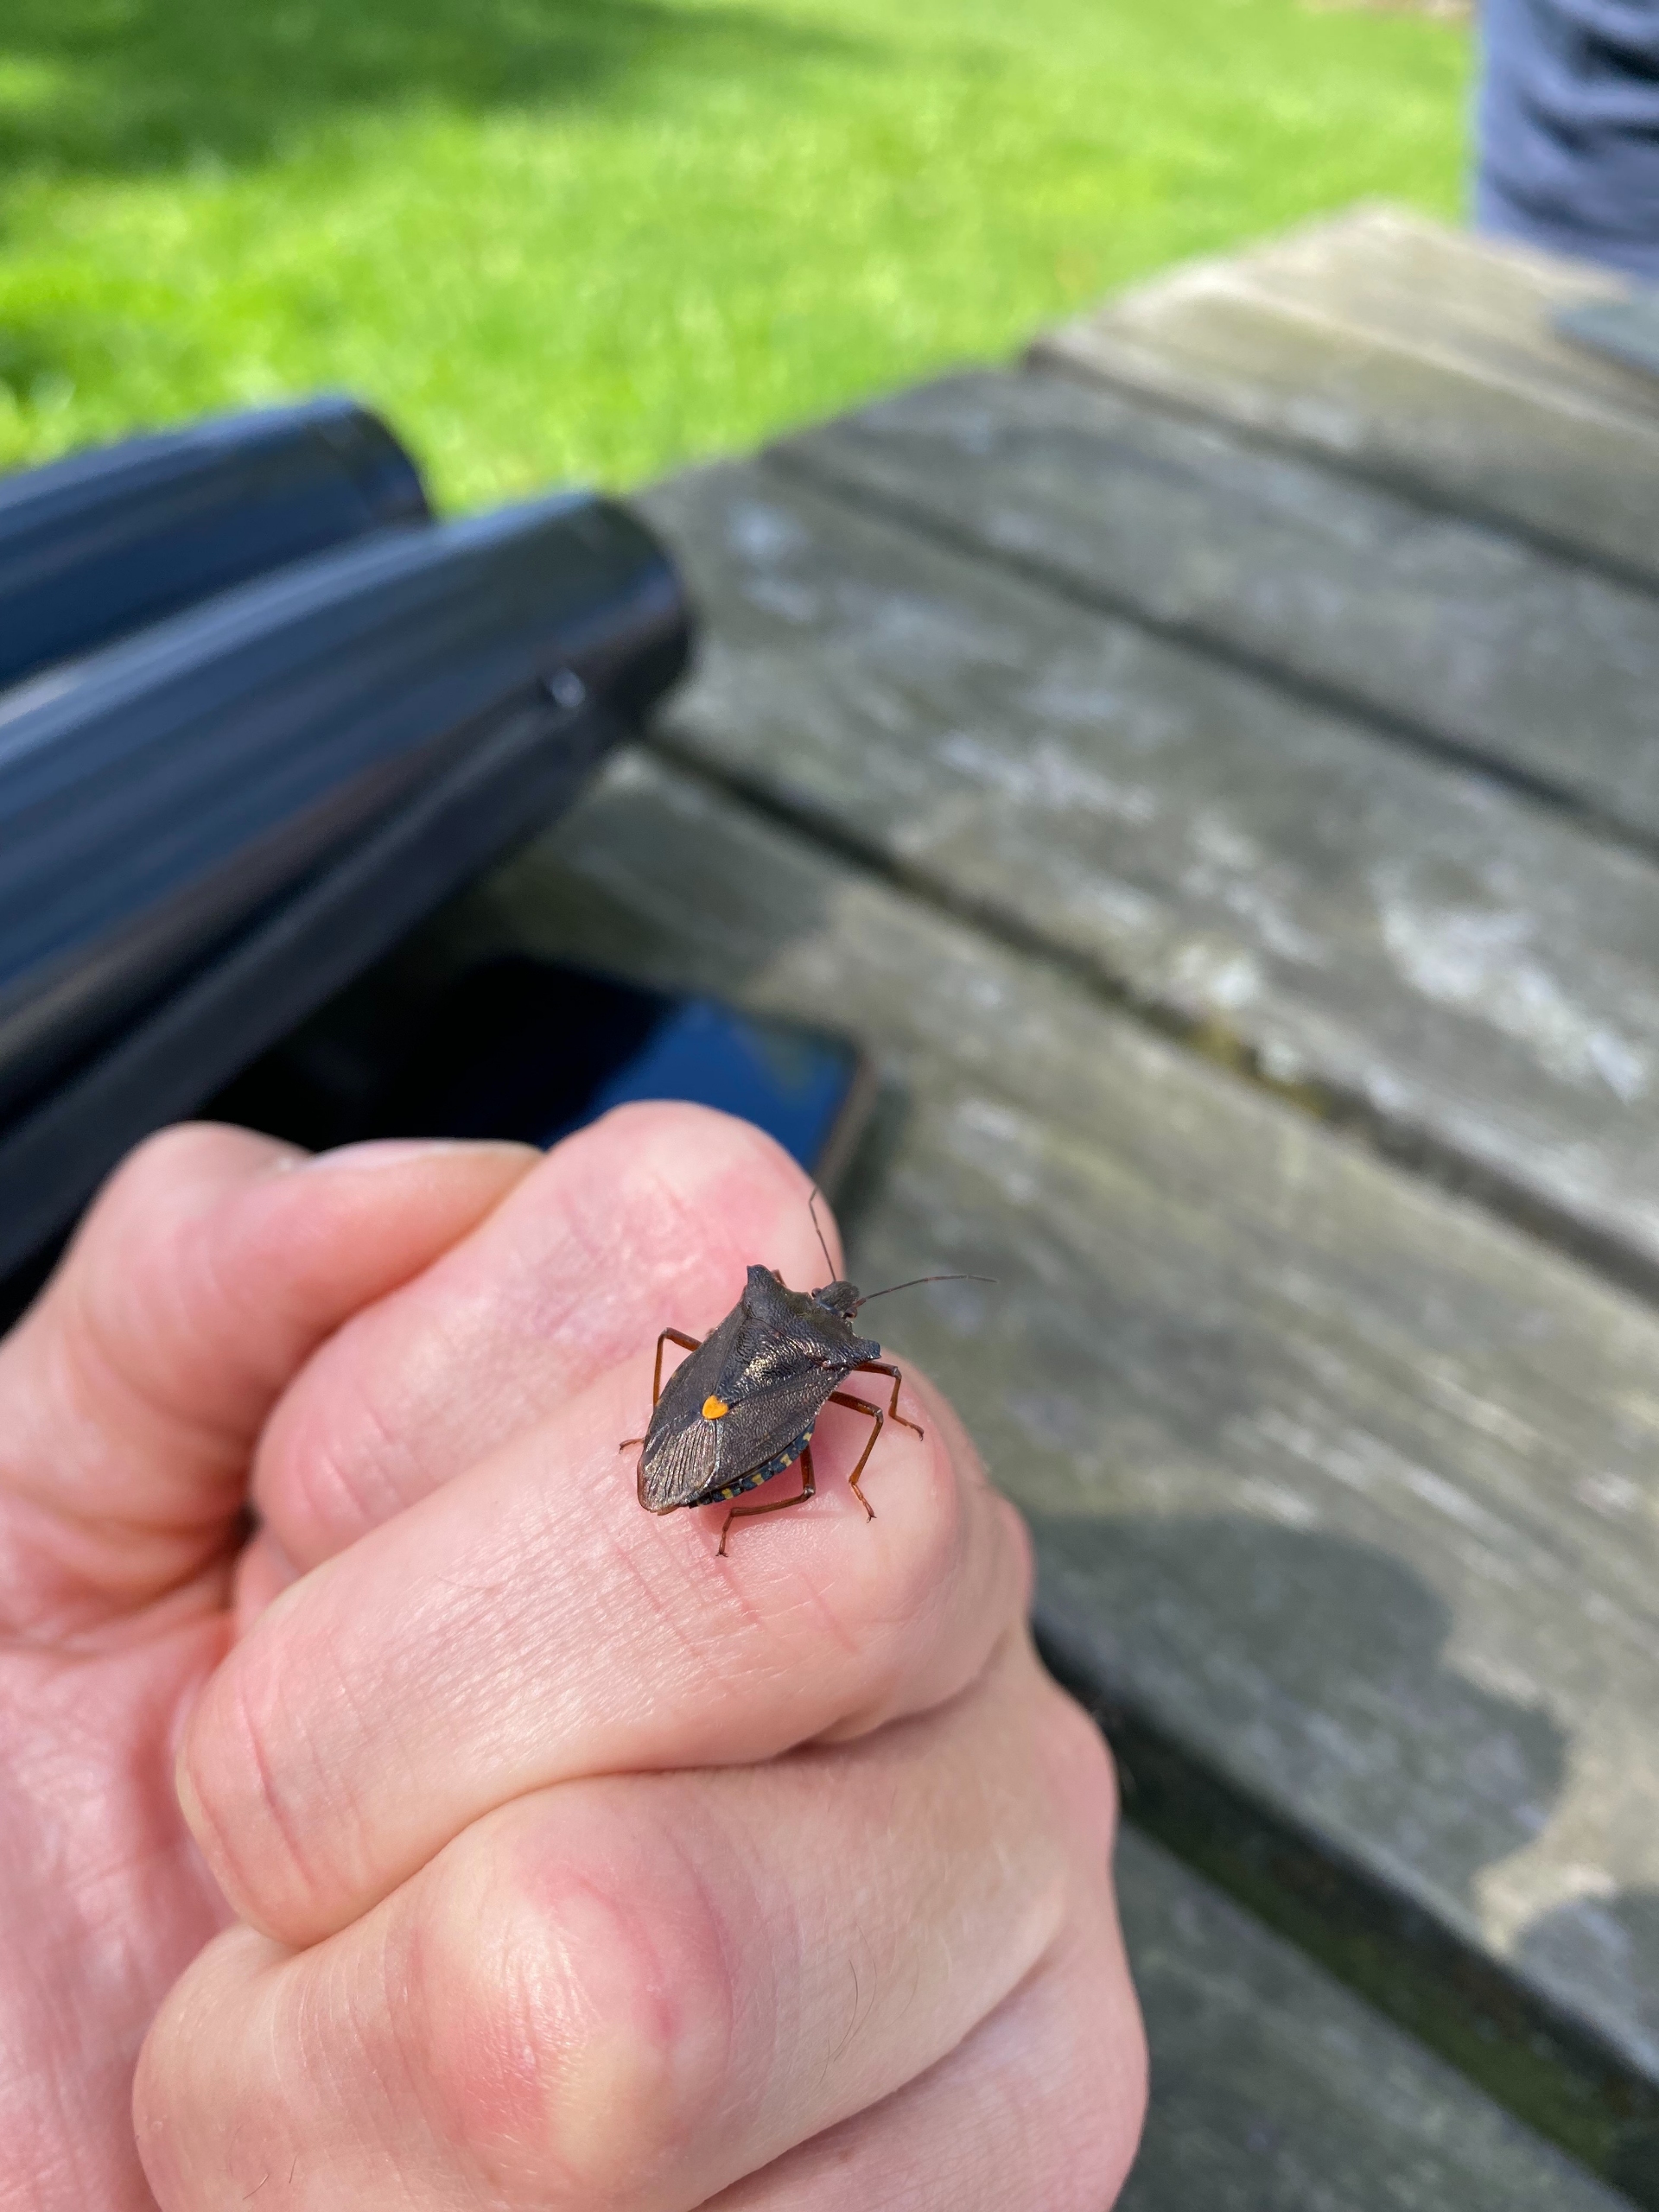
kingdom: Animalia
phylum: Arthropoda
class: Insecta
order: Hemiptera
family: Pentatomidae
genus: Pentatoma
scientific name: Pentatoma rufipes
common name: Rødbenet bredtæge
